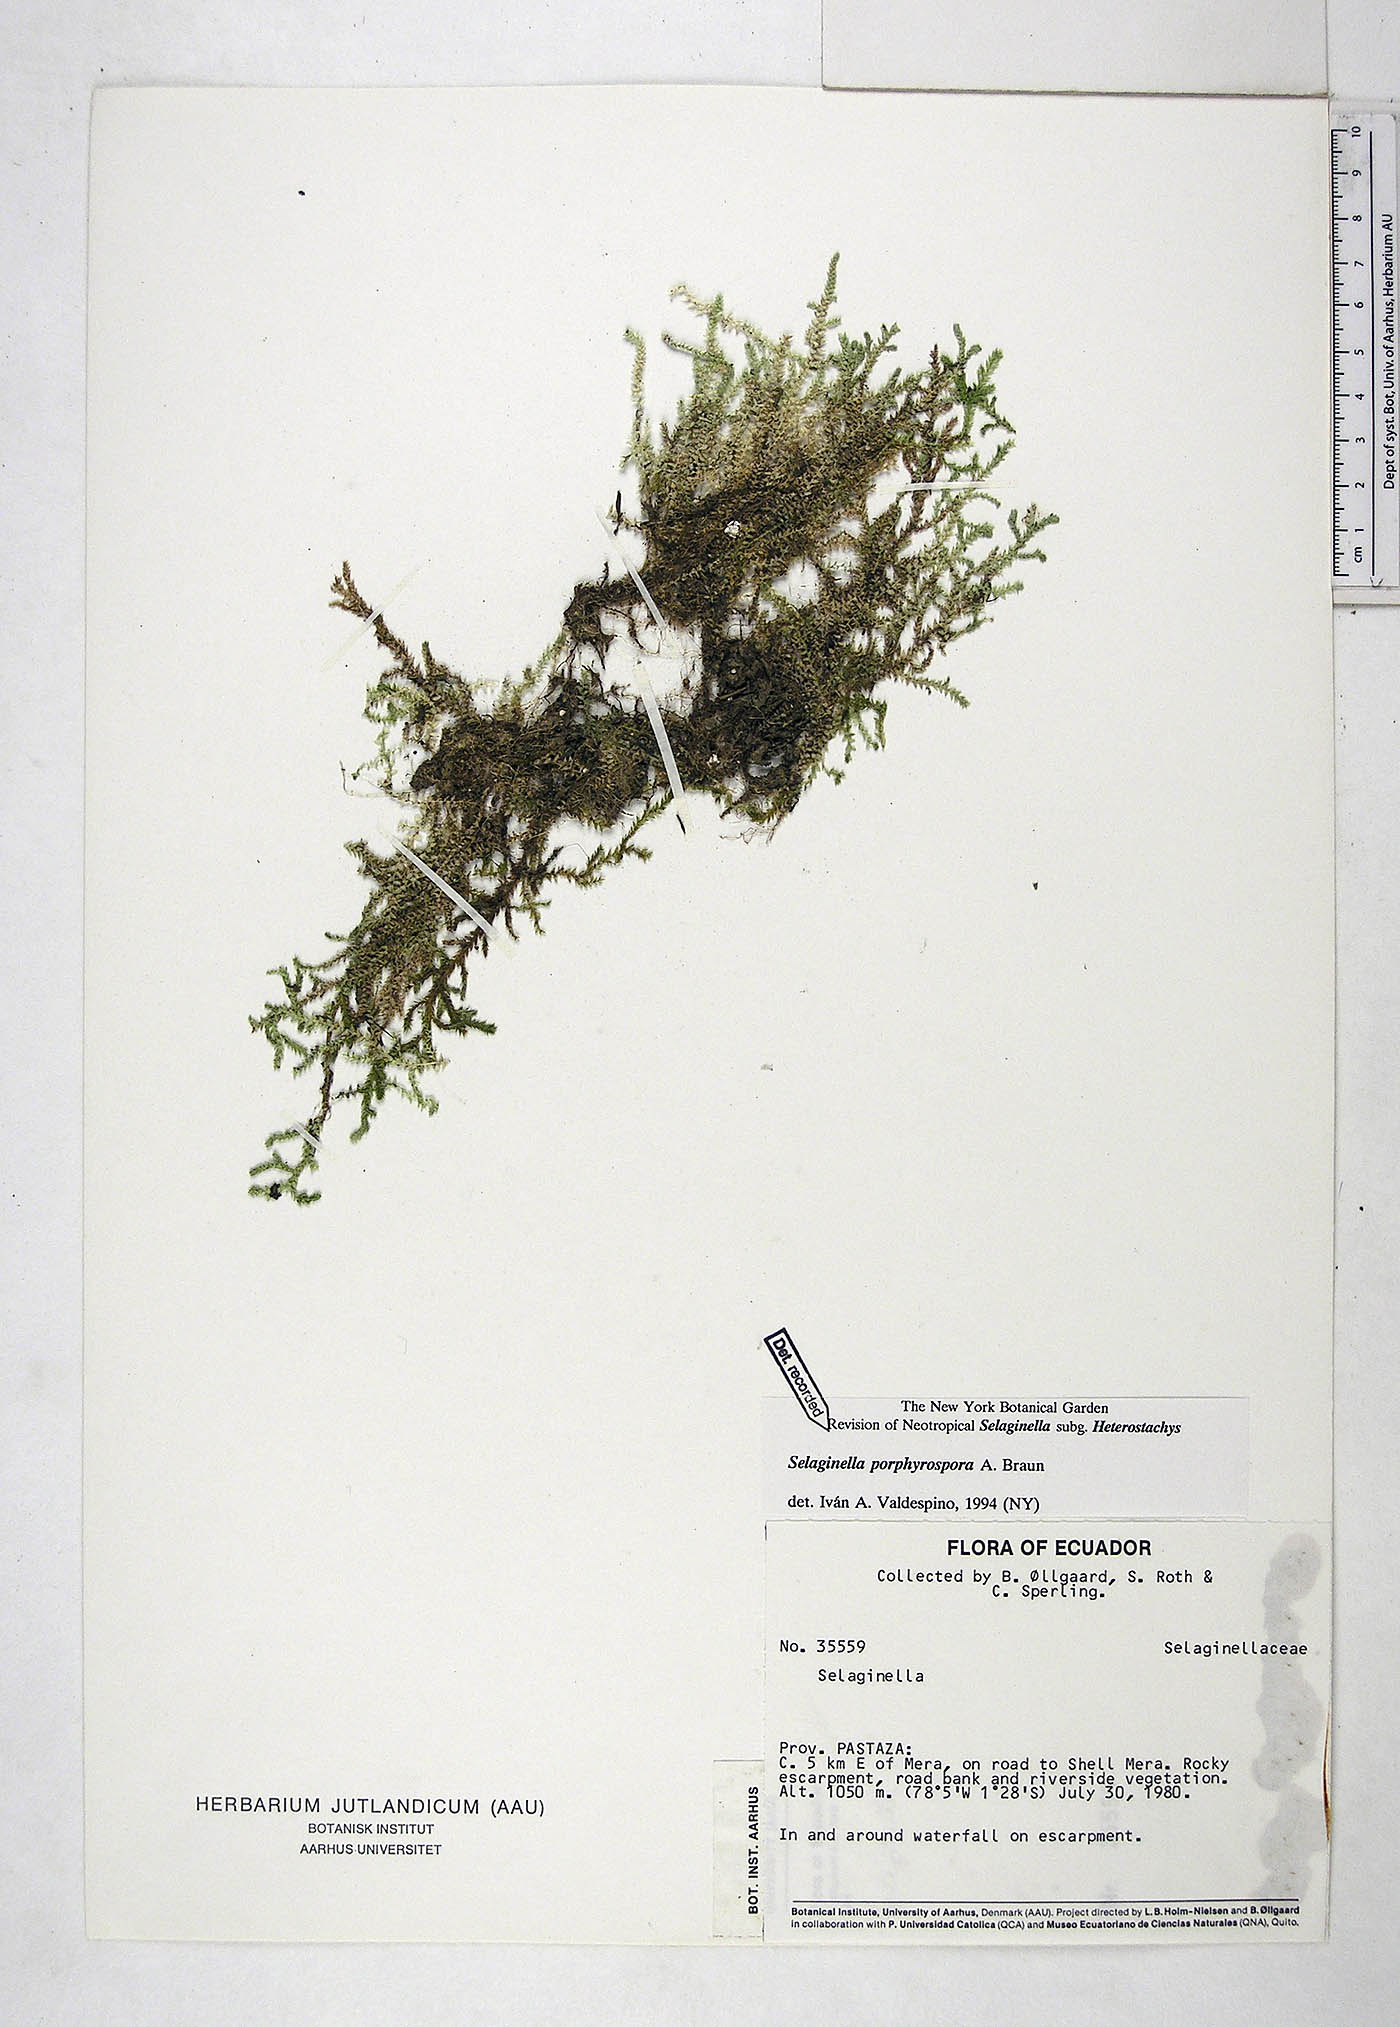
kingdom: Plantae
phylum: Tracheophyta
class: Lycopodiopsida
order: Selaginellales
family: Selaginellaceae
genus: Selaginella
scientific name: Selaginella porphyrospora
